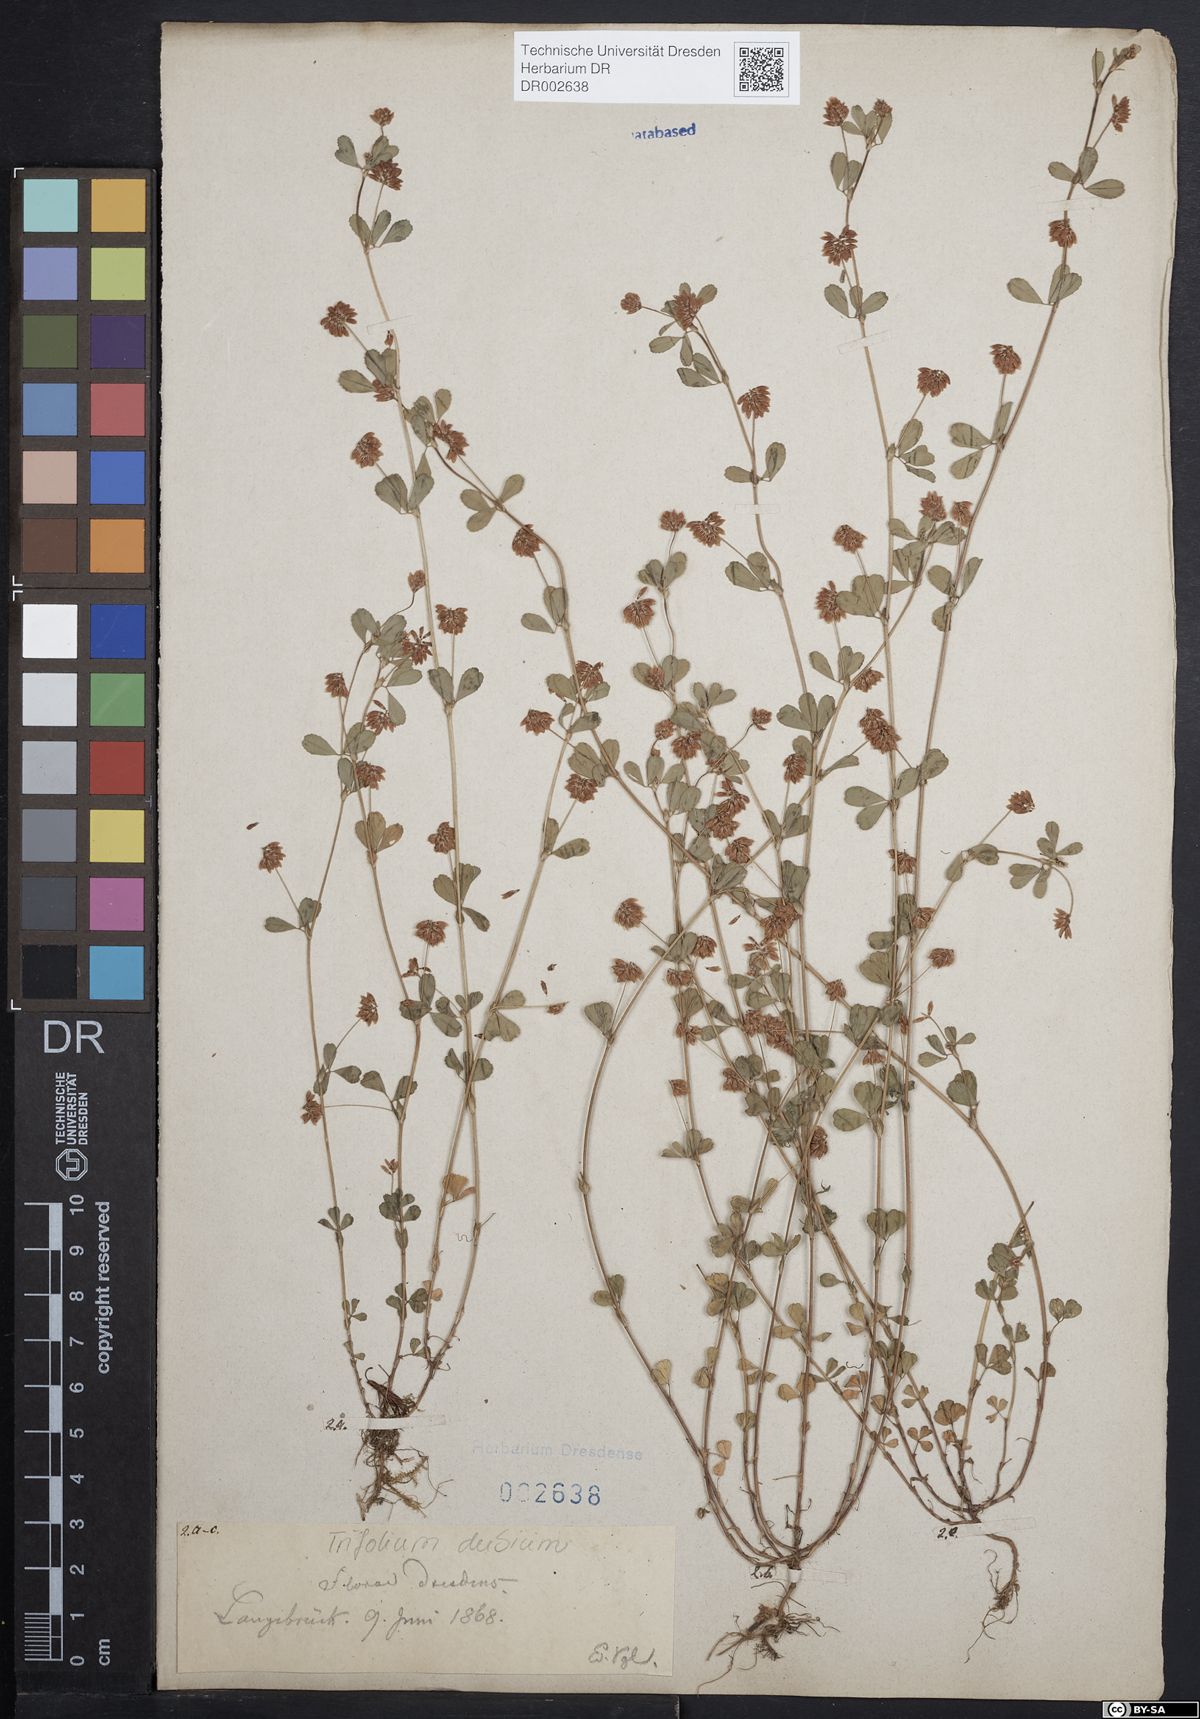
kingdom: Plantae
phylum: Tracheophyta
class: Magnoliopsida
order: Fabales
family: Fabaceae
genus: Trifolium
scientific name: Trifolium dubium
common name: Suckling clover
